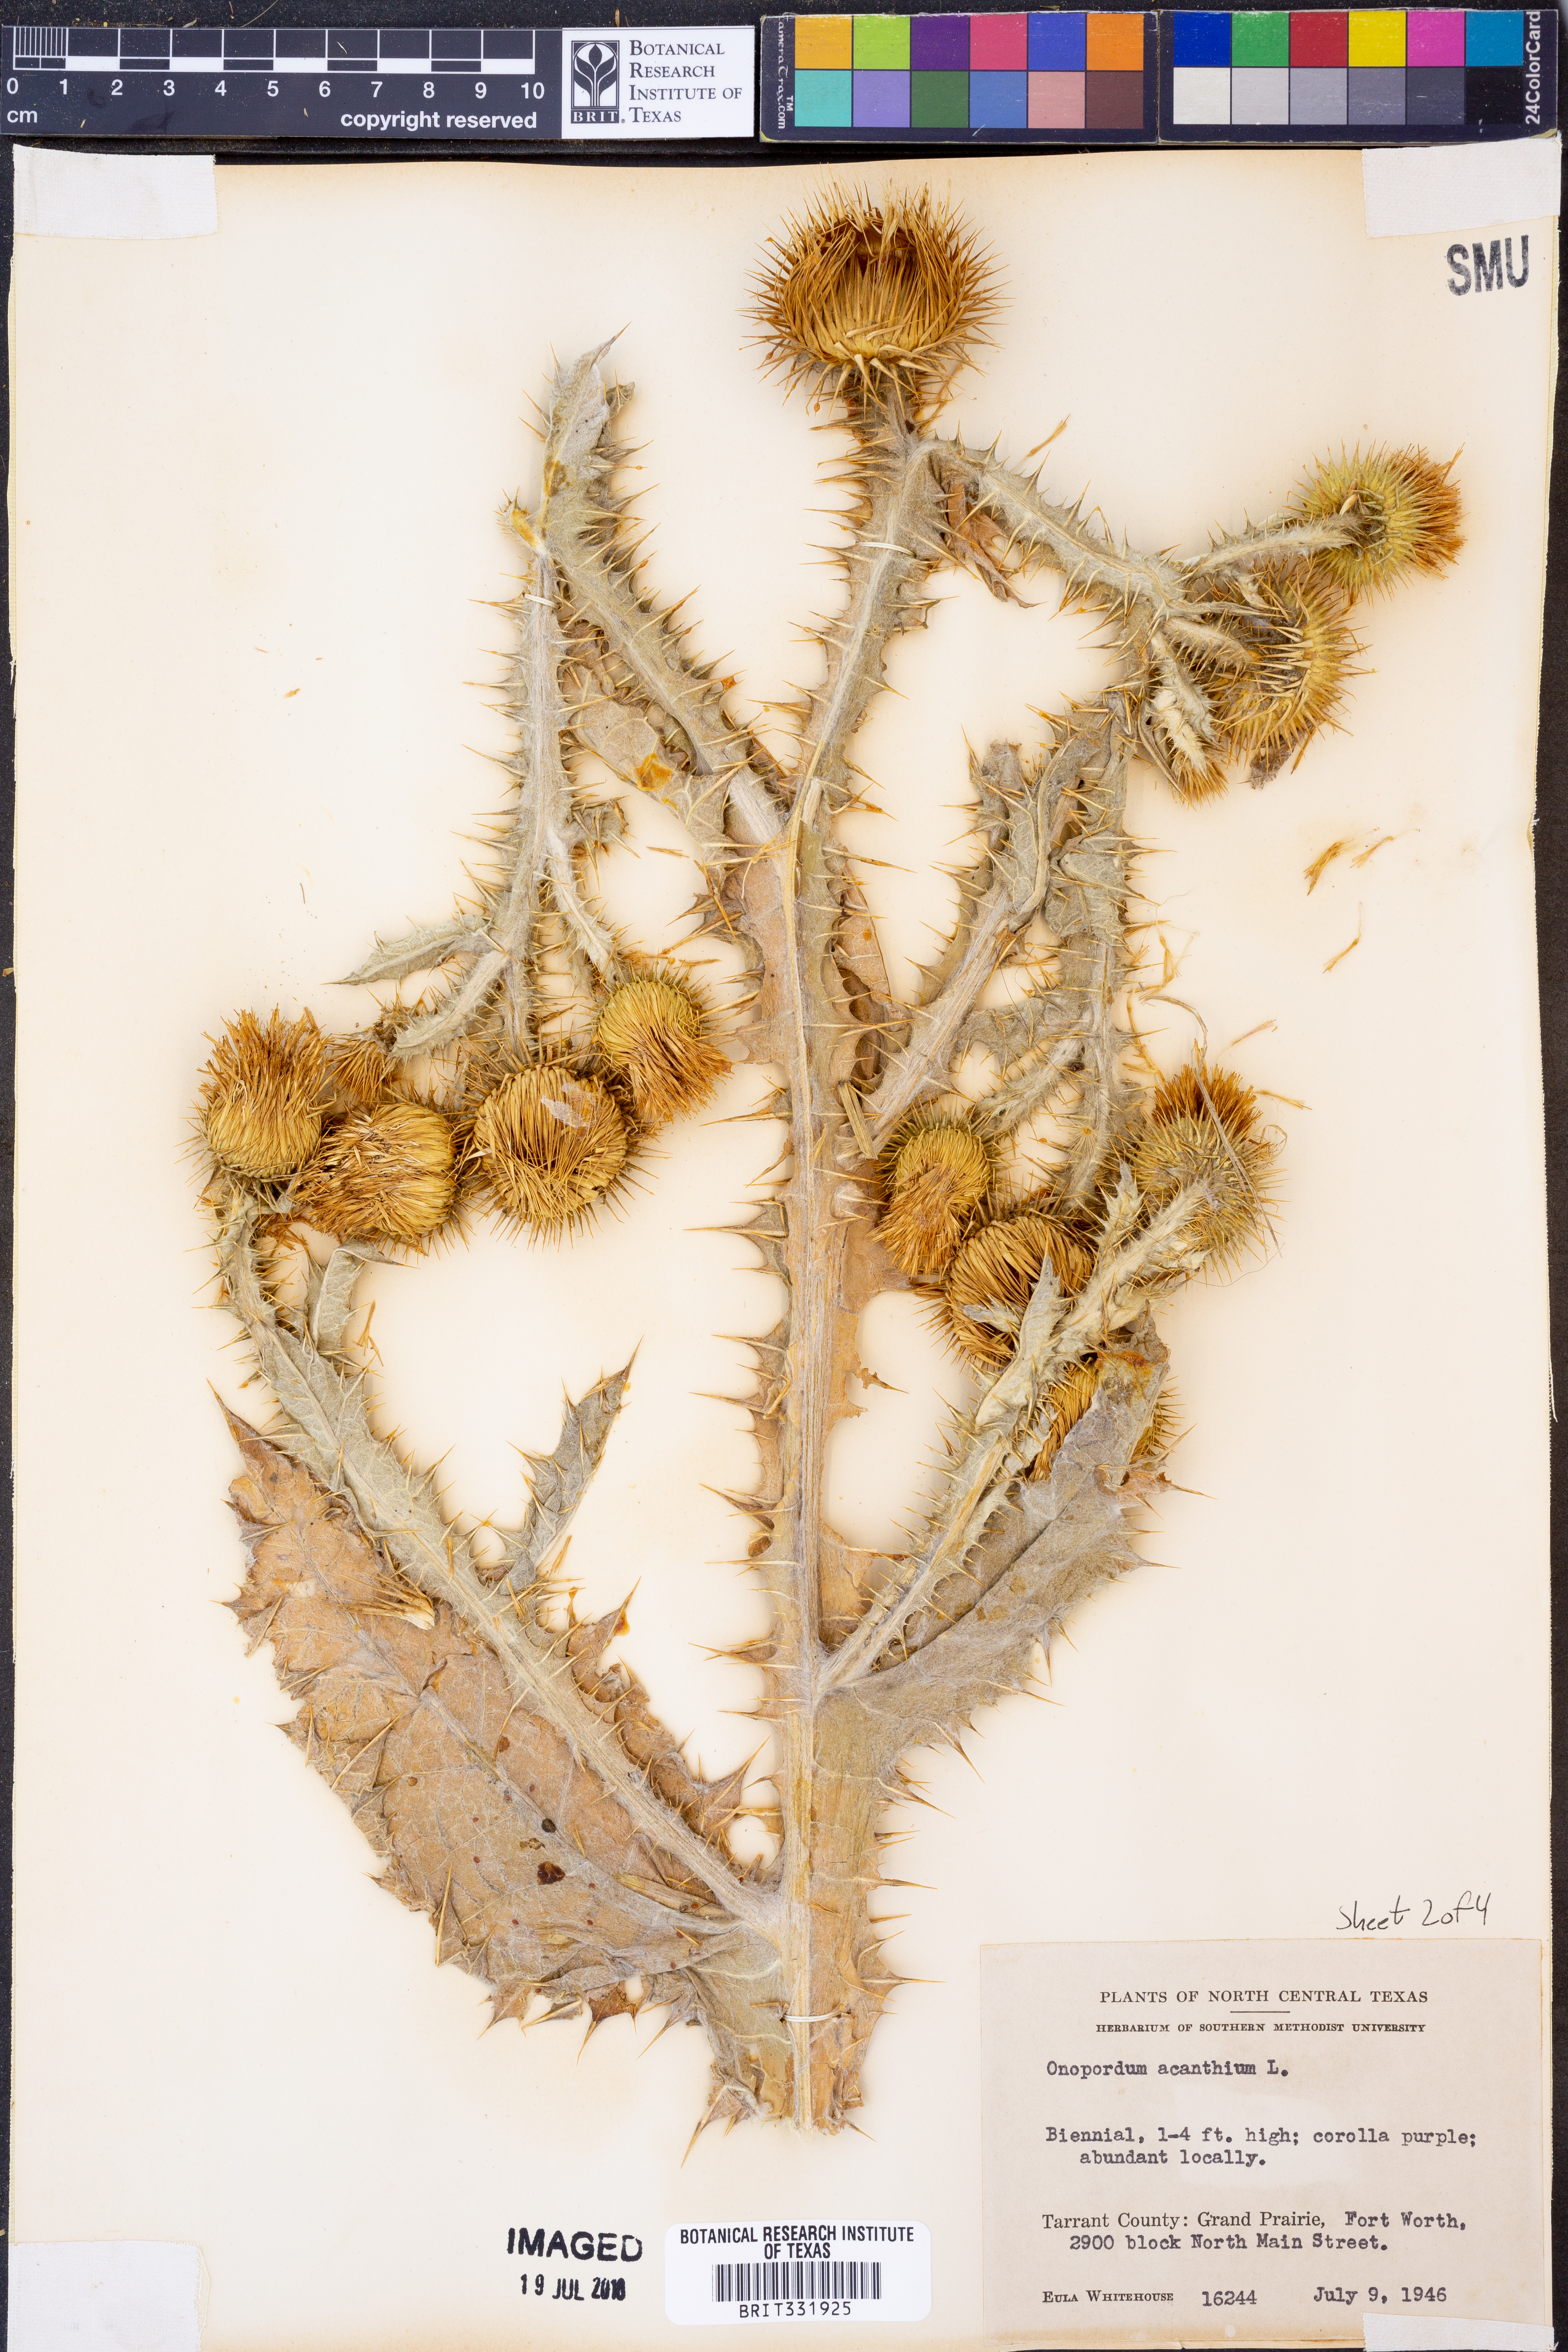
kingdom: Plantae
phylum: Tracheophyta
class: Magnoliopsida
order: Asterales
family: Asteraceae
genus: Onopordum
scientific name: Onopordum acanthium
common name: Scotch thistle
